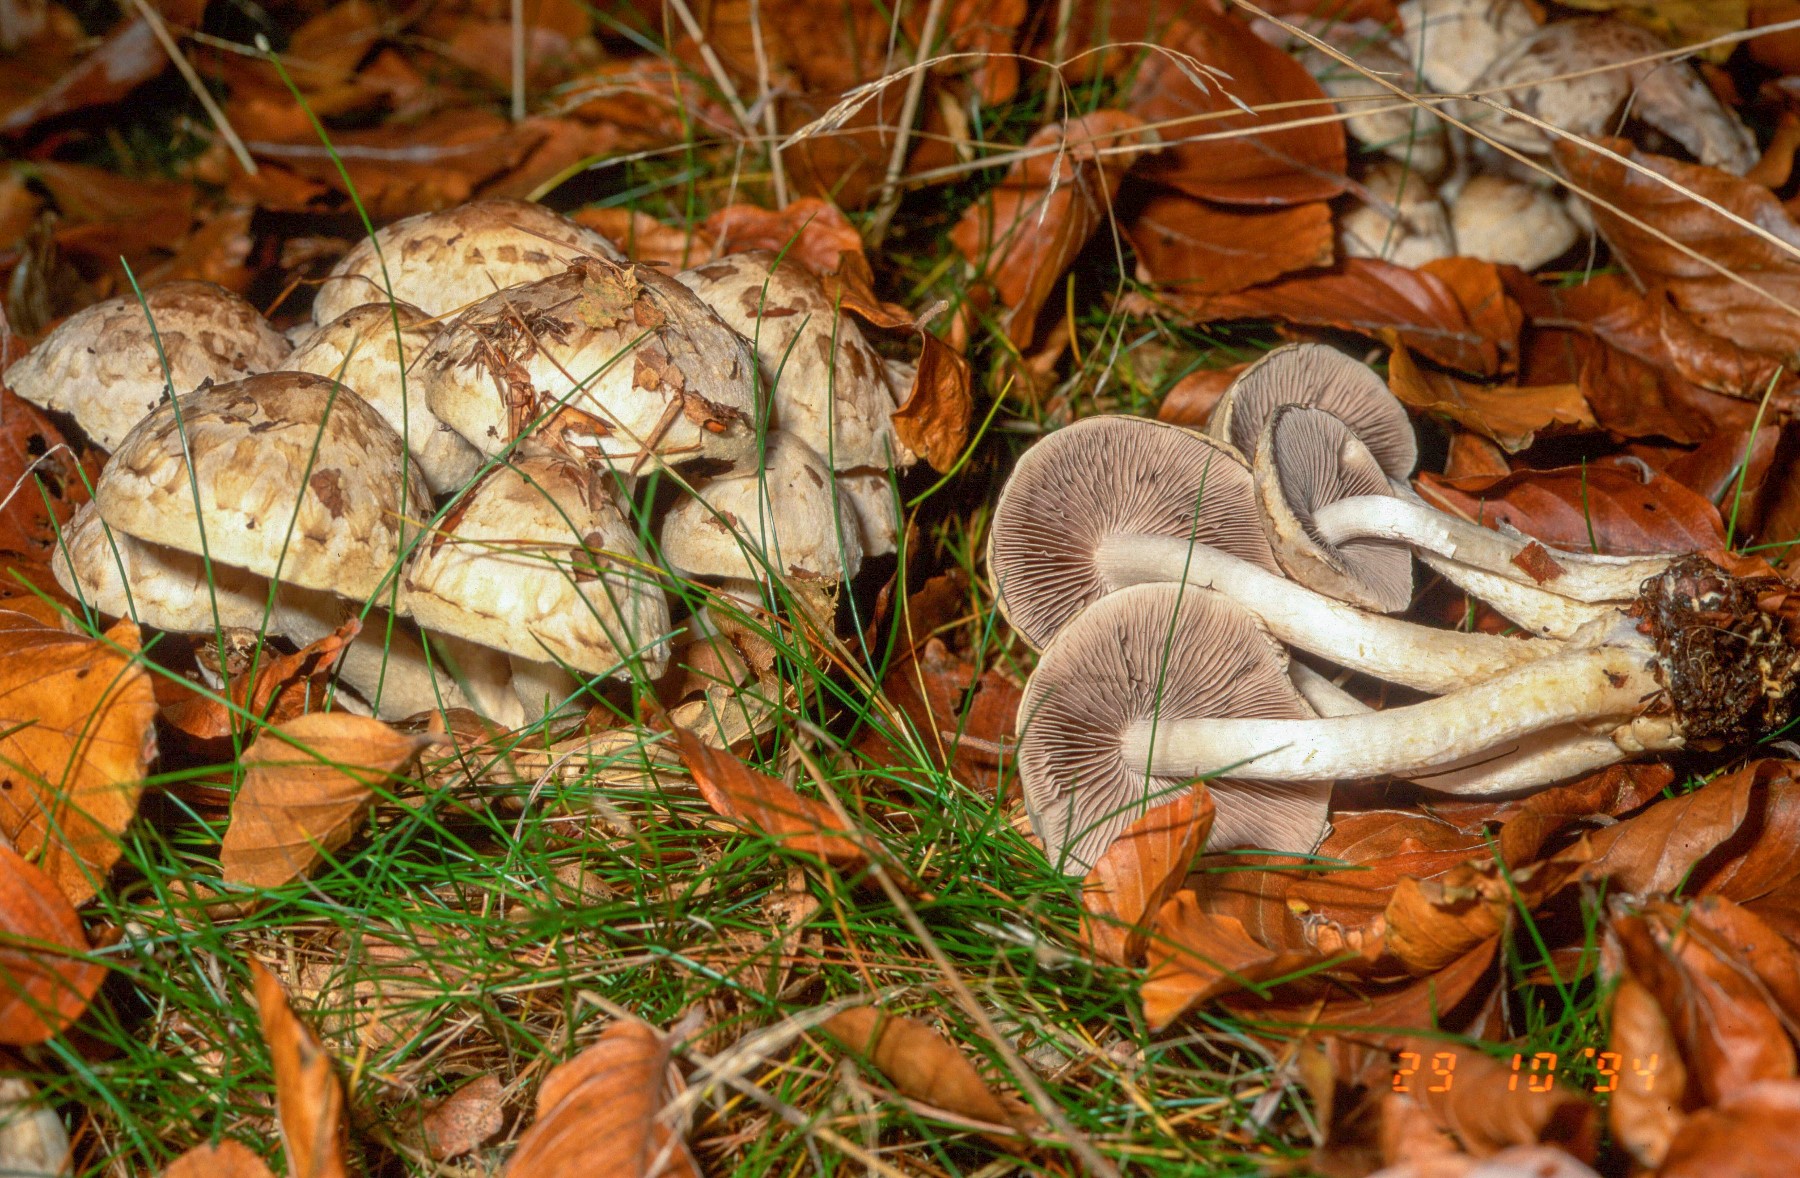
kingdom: Fungi
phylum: Basidiomycota
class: Agaricomycetes
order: Agaricales
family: Psathyrellaceae
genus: Psathyrella
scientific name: Psathyrella cotonea
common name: skællet mørkhat
